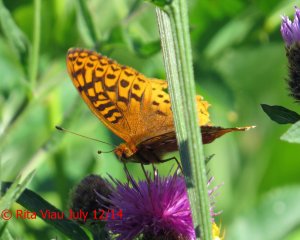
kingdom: Animalia
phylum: Arthropoda
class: Insecta
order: Lepidoptera
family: Nymphalidae
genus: Speyeria
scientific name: Speyeria cybele
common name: Great Spangled Fritillary
